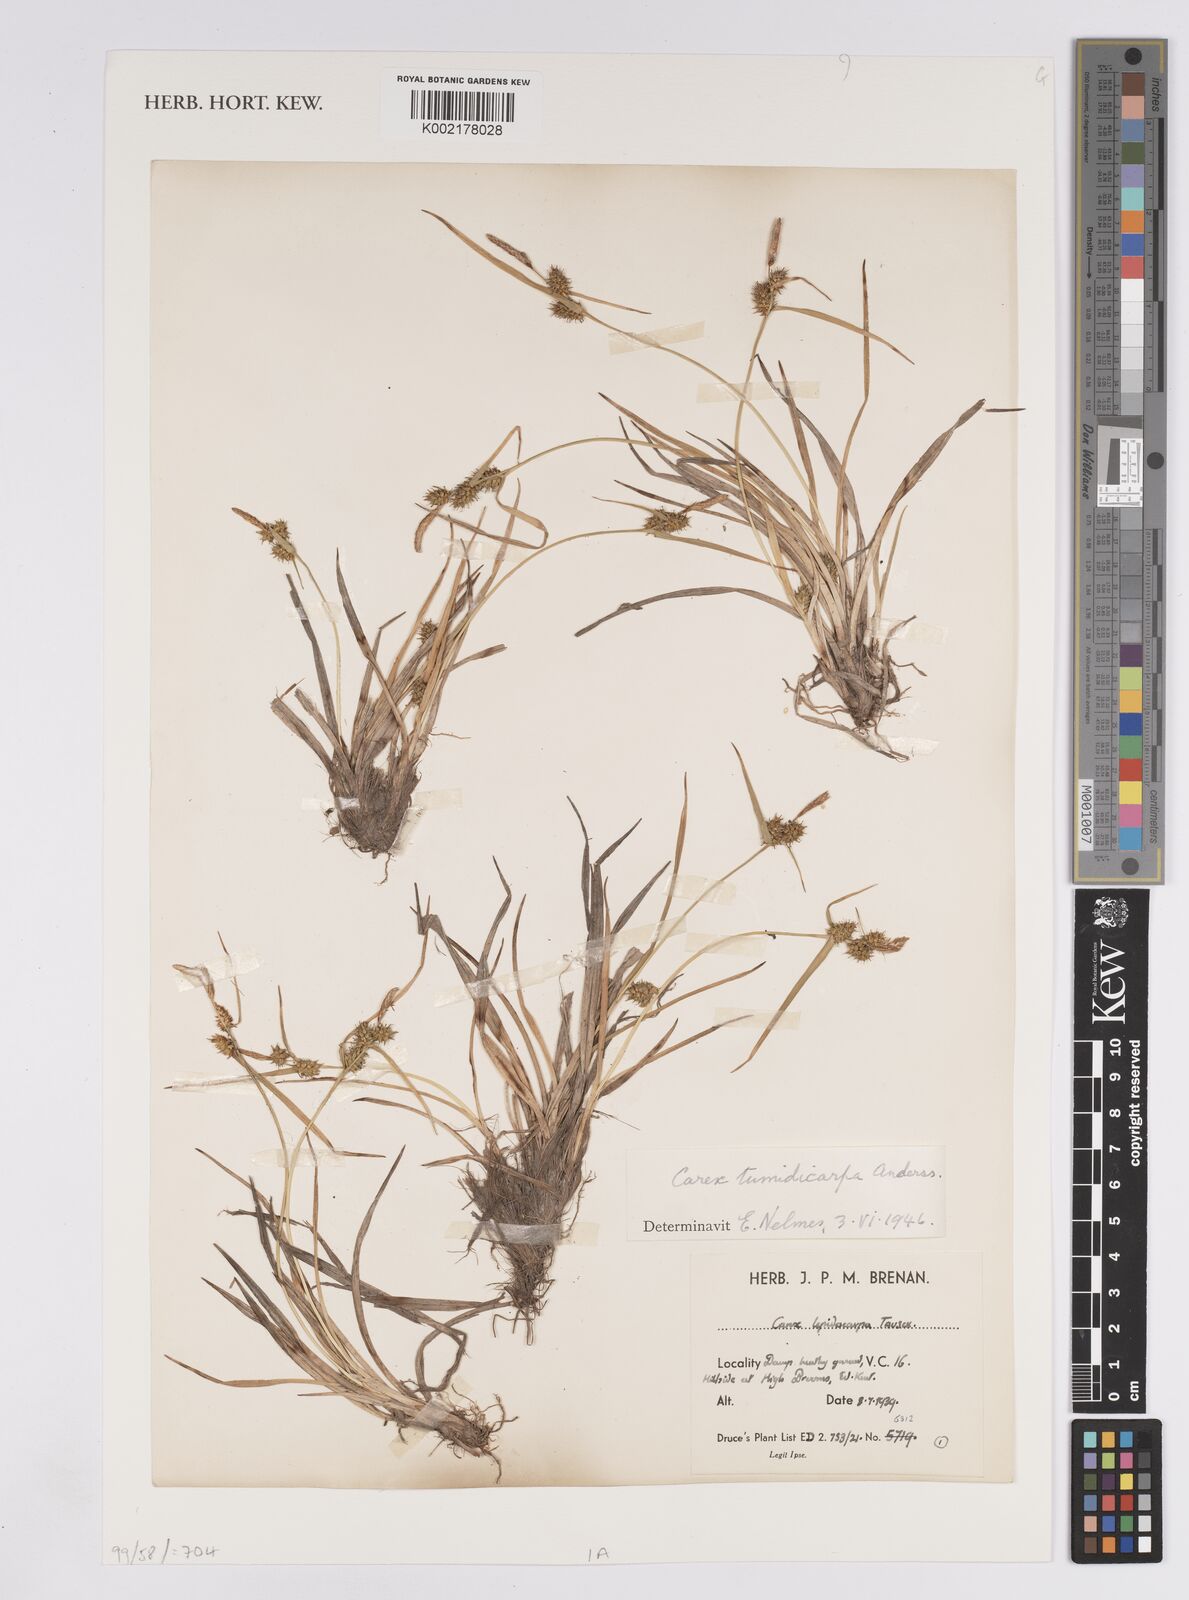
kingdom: Plantae
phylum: Tracheophyta
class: Liliopsida
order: Poales
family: Cyperaceae
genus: Carex
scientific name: Carex demissa
